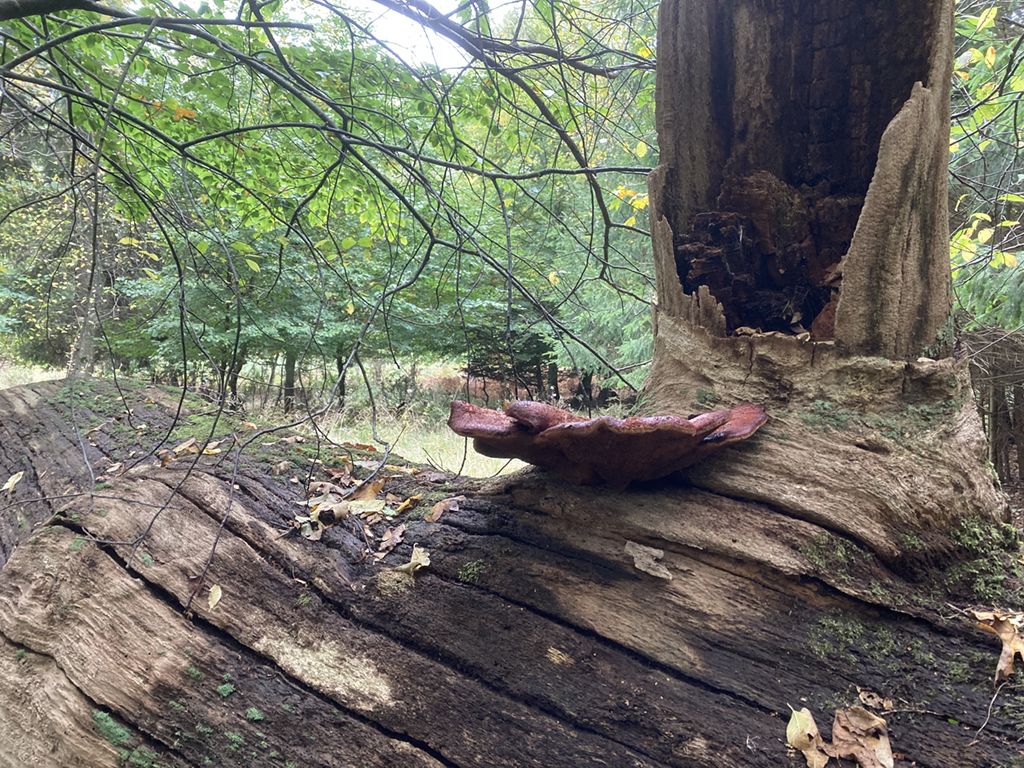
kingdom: Fungi
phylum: Basidiomycota
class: Agaricomycetes
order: Agaricales
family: Fistulinaceae
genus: Fistulina
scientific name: Fistulina hepatica
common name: oksetunge
